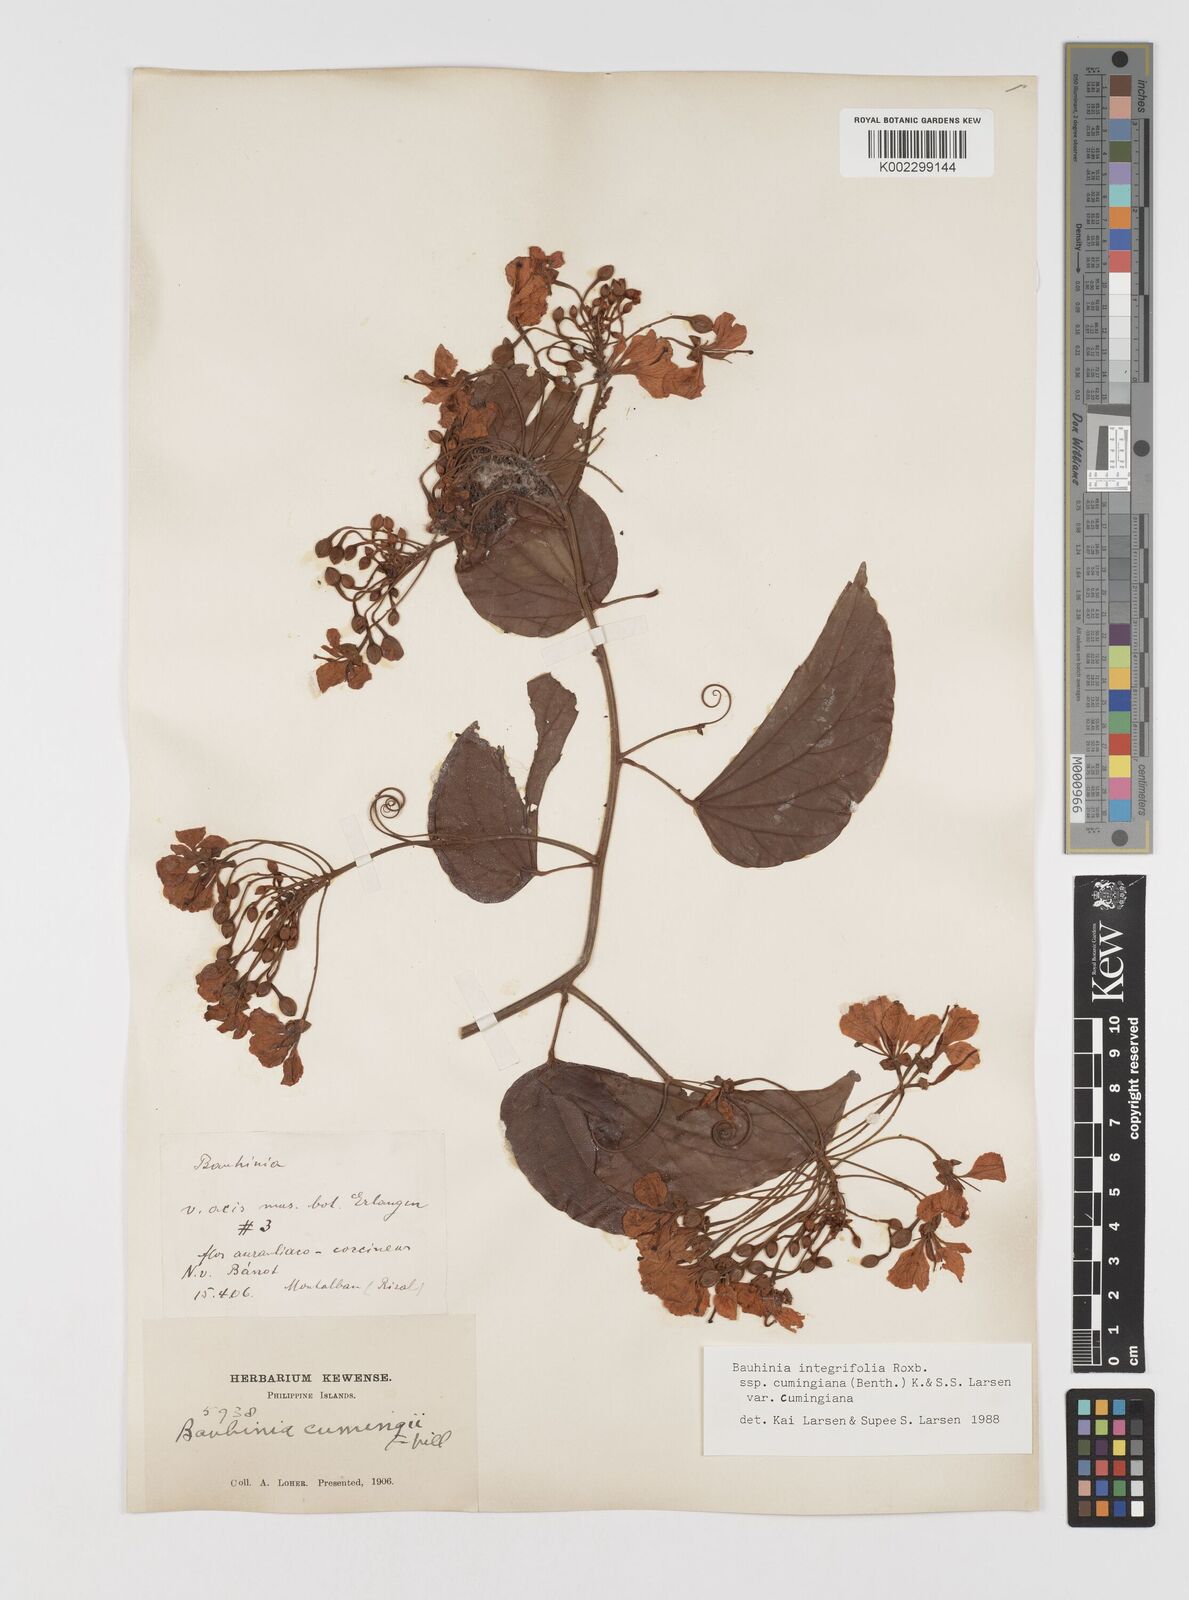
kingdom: Plantae
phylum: Tracheophyta
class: Magnoliopsida
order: Fabales
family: Fabaceae
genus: Phanera
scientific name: Phanera integrifolia
